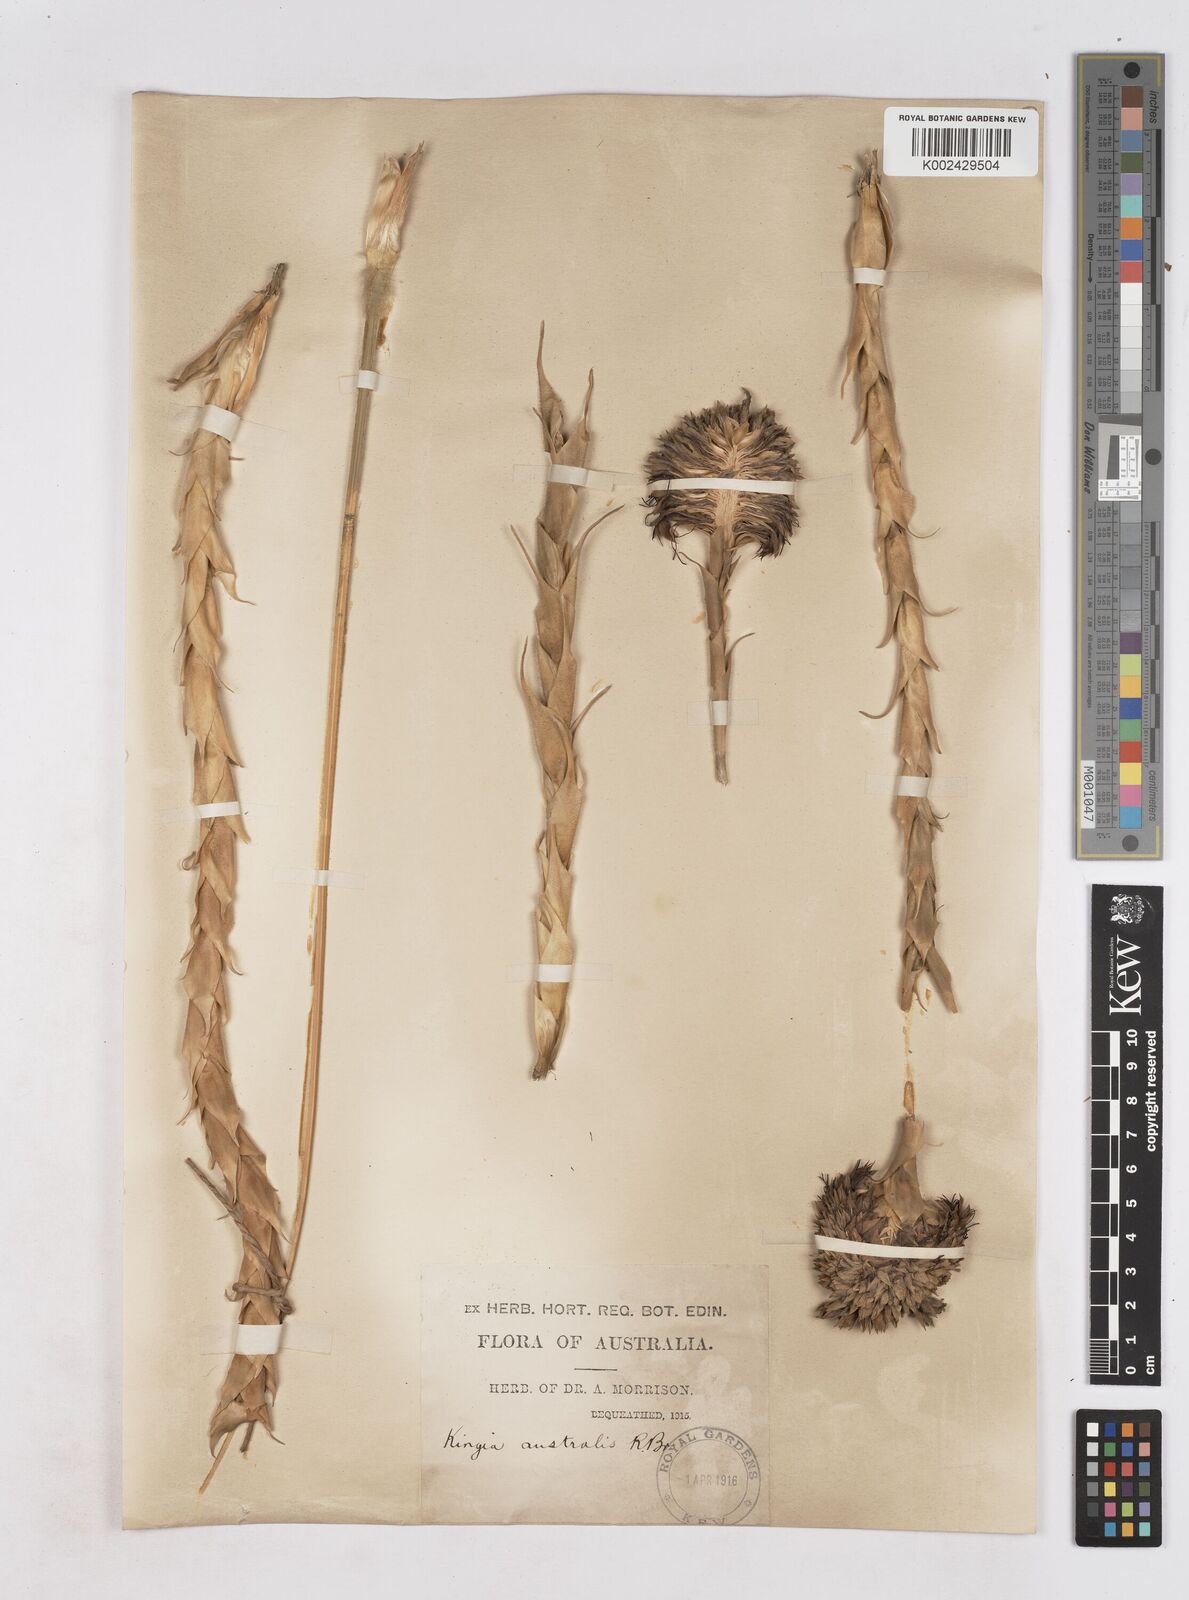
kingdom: Plantae
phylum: Tracheophyta
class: Liliopsida
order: Arecales
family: Dasypogonaceae
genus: Kingia
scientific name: Kingia australis
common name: Black gin
